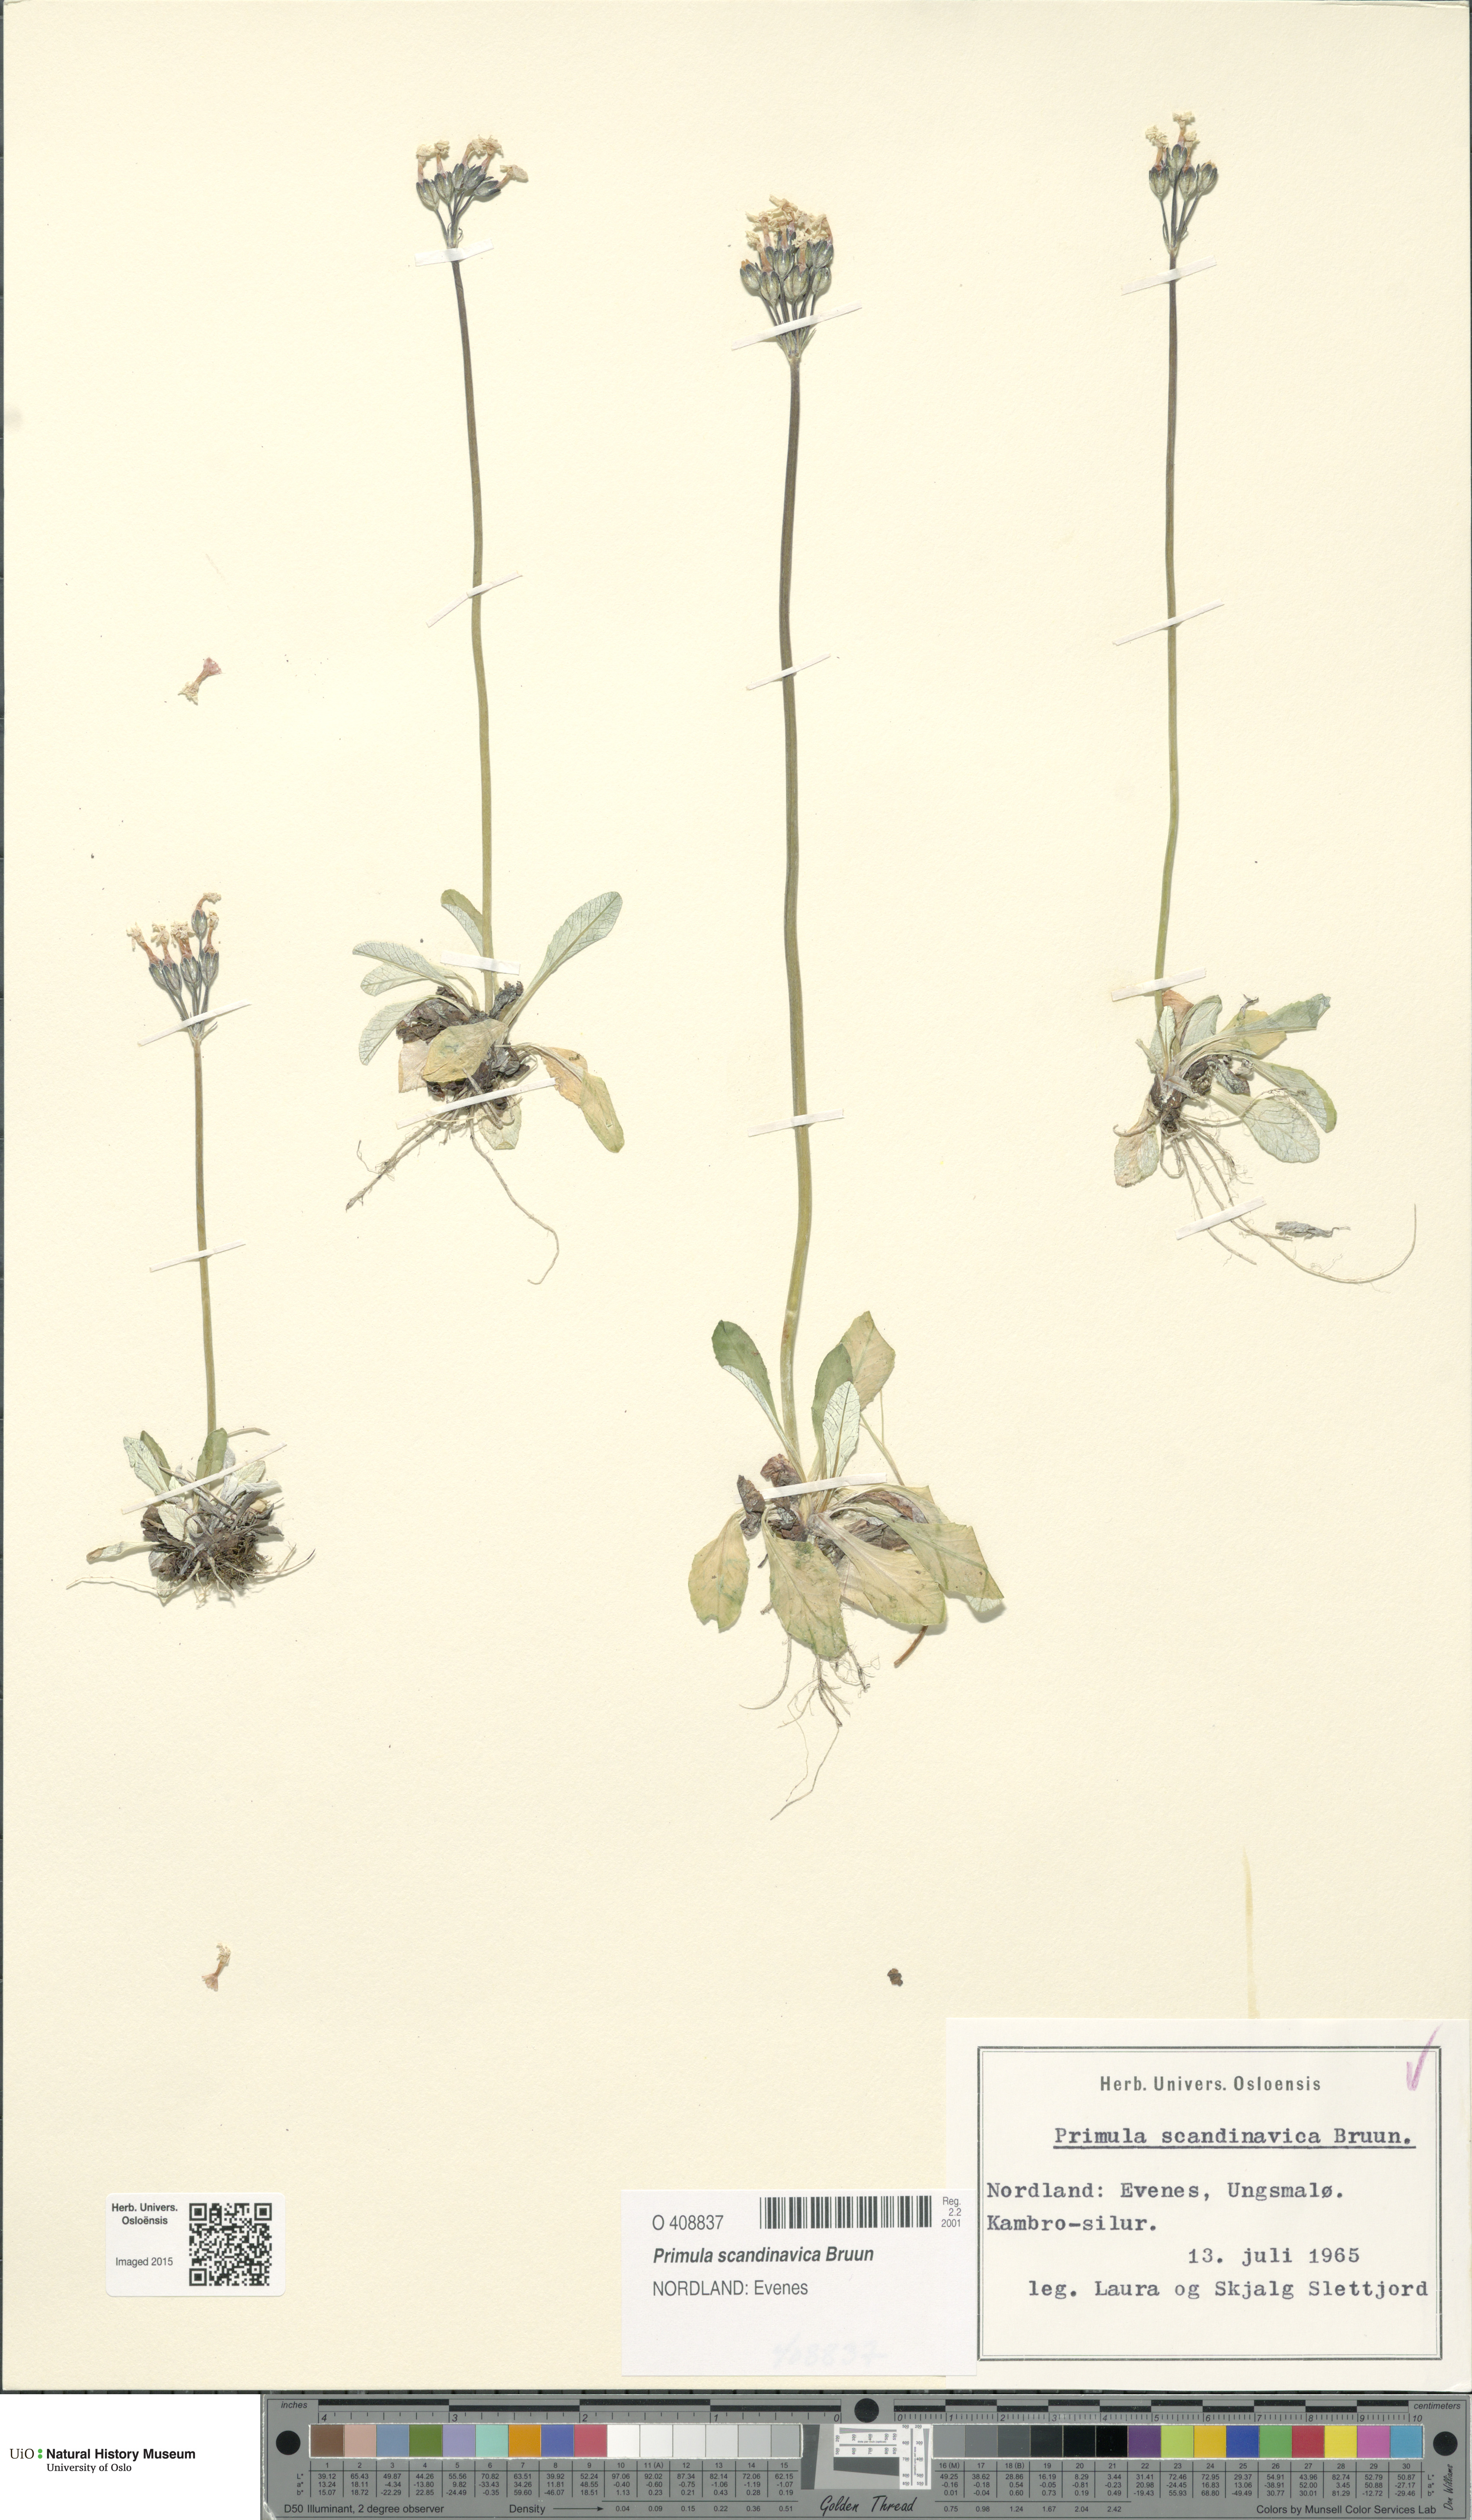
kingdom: Plantae
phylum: Tracheophyta
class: Magnoliopsida
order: Ericales
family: Primulaceae
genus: Primula
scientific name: Primula scandinavica
